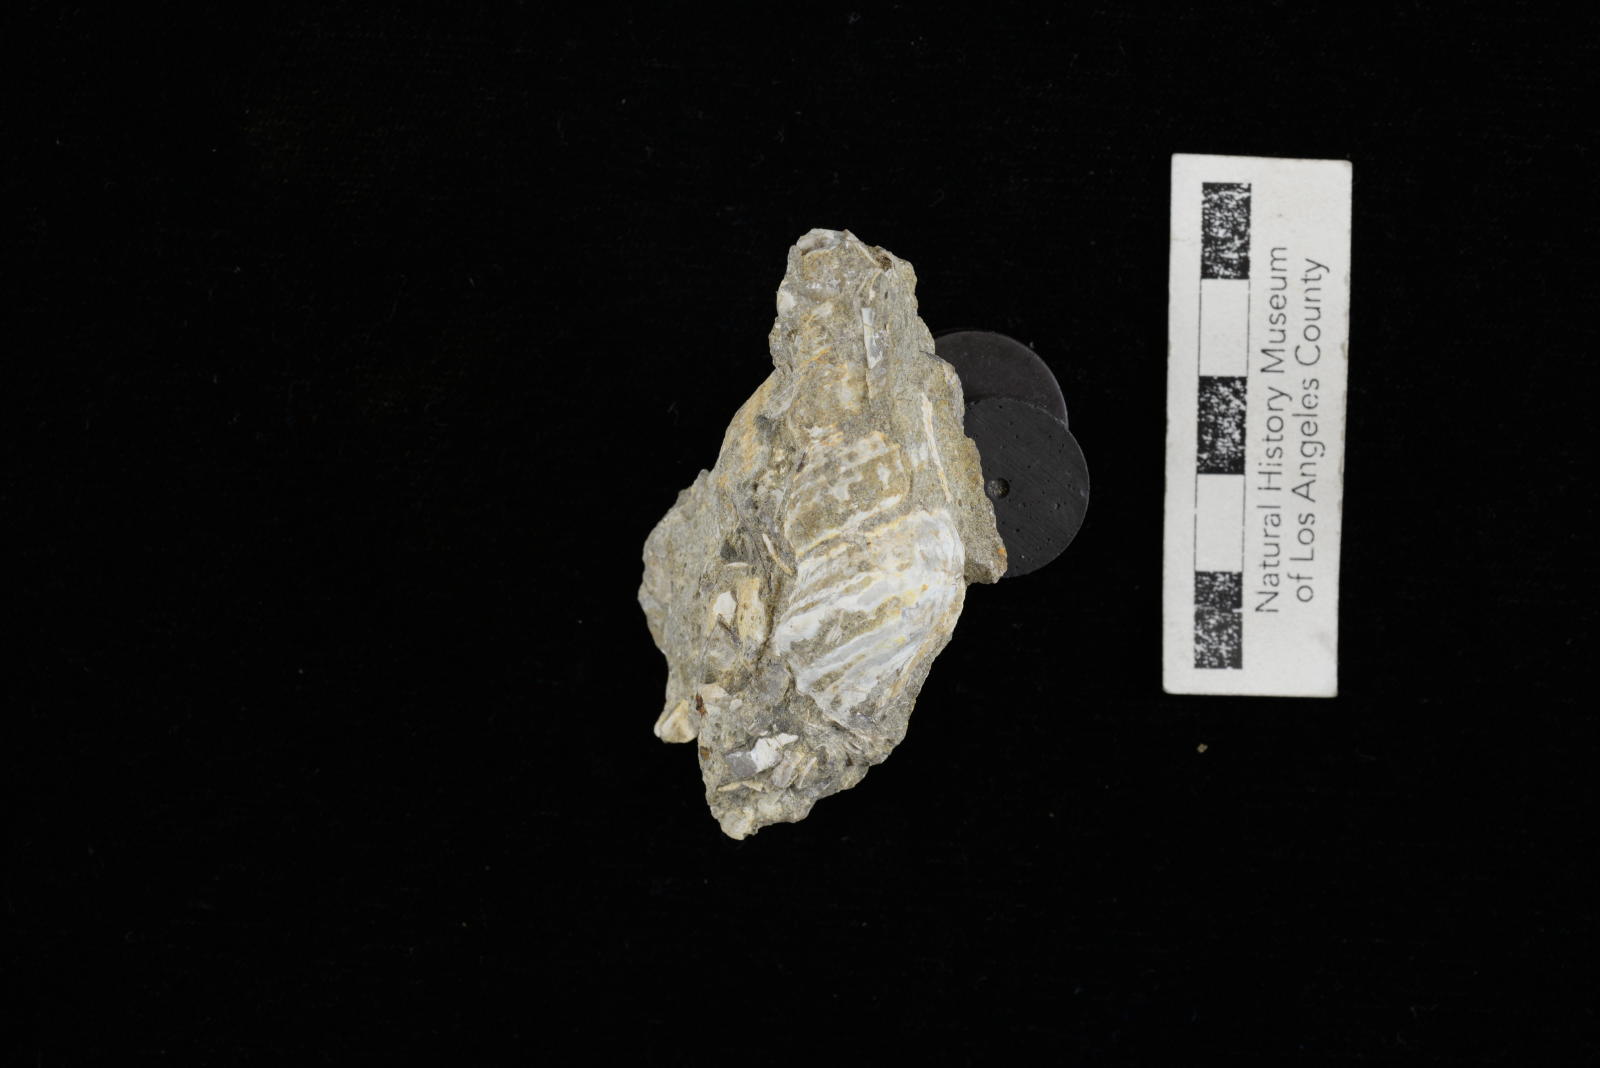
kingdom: Animalia
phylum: Mollusca
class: Gastropoda
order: Littorinimorpha
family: Aporrhaidae
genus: Anchura
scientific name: Anchura phaba
